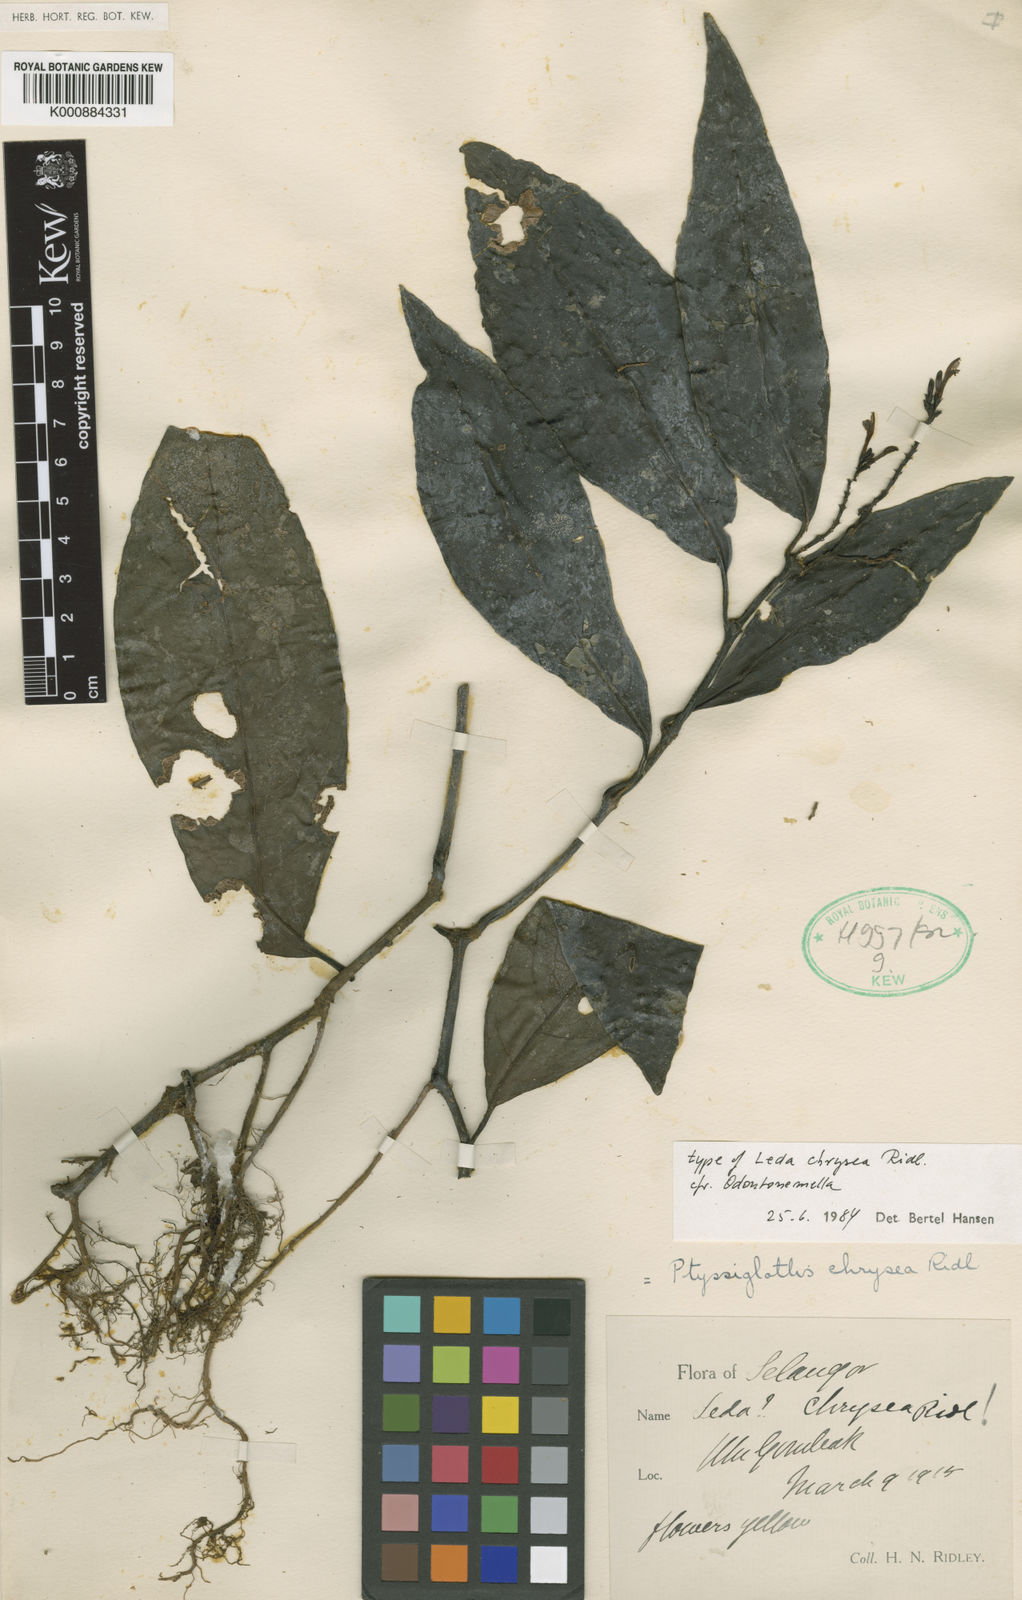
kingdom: Plantae
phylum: Tracheophyta
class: Magnoliopsida
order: Lamiales
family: Acanthaceae
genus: Ptyssiglottis
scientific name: Ptyssiglottis chrysea
